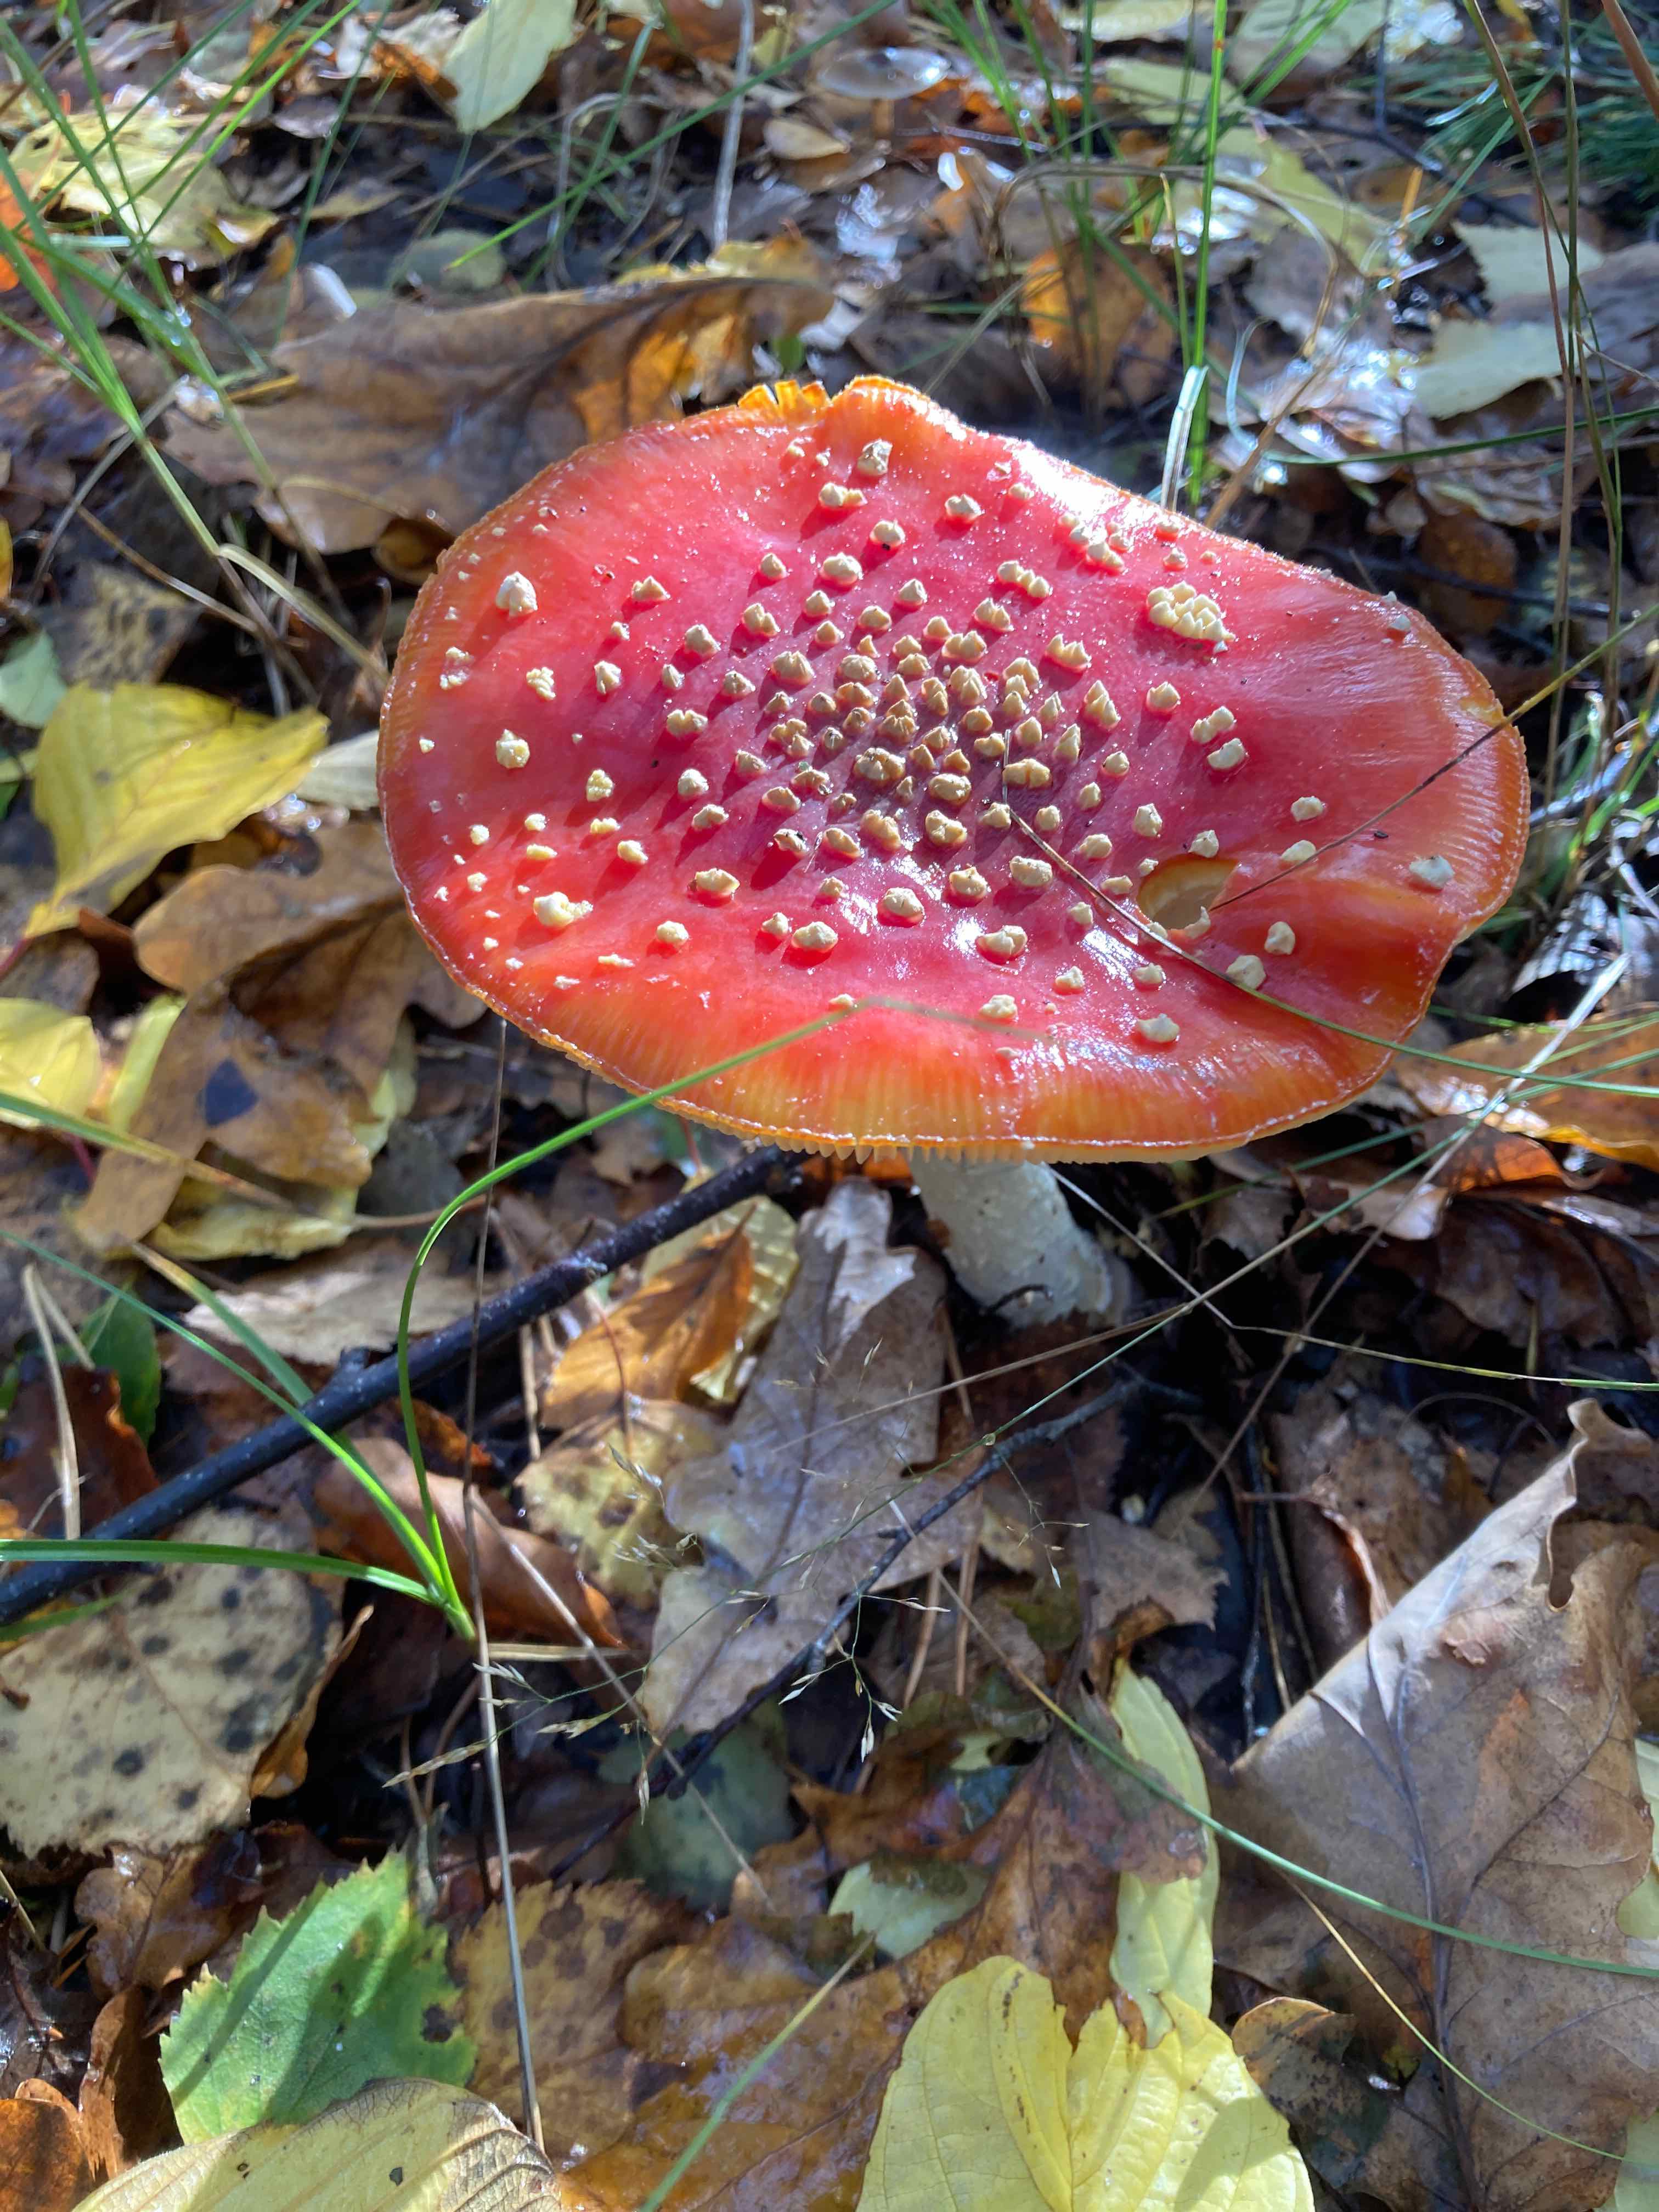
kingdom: Fungi
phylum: Basidiomycota
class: Agaricomycetes
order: Agaricales
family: Amanitaceae
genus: Amanita
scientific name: Amanita muscaria
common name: rød fluesvamp
